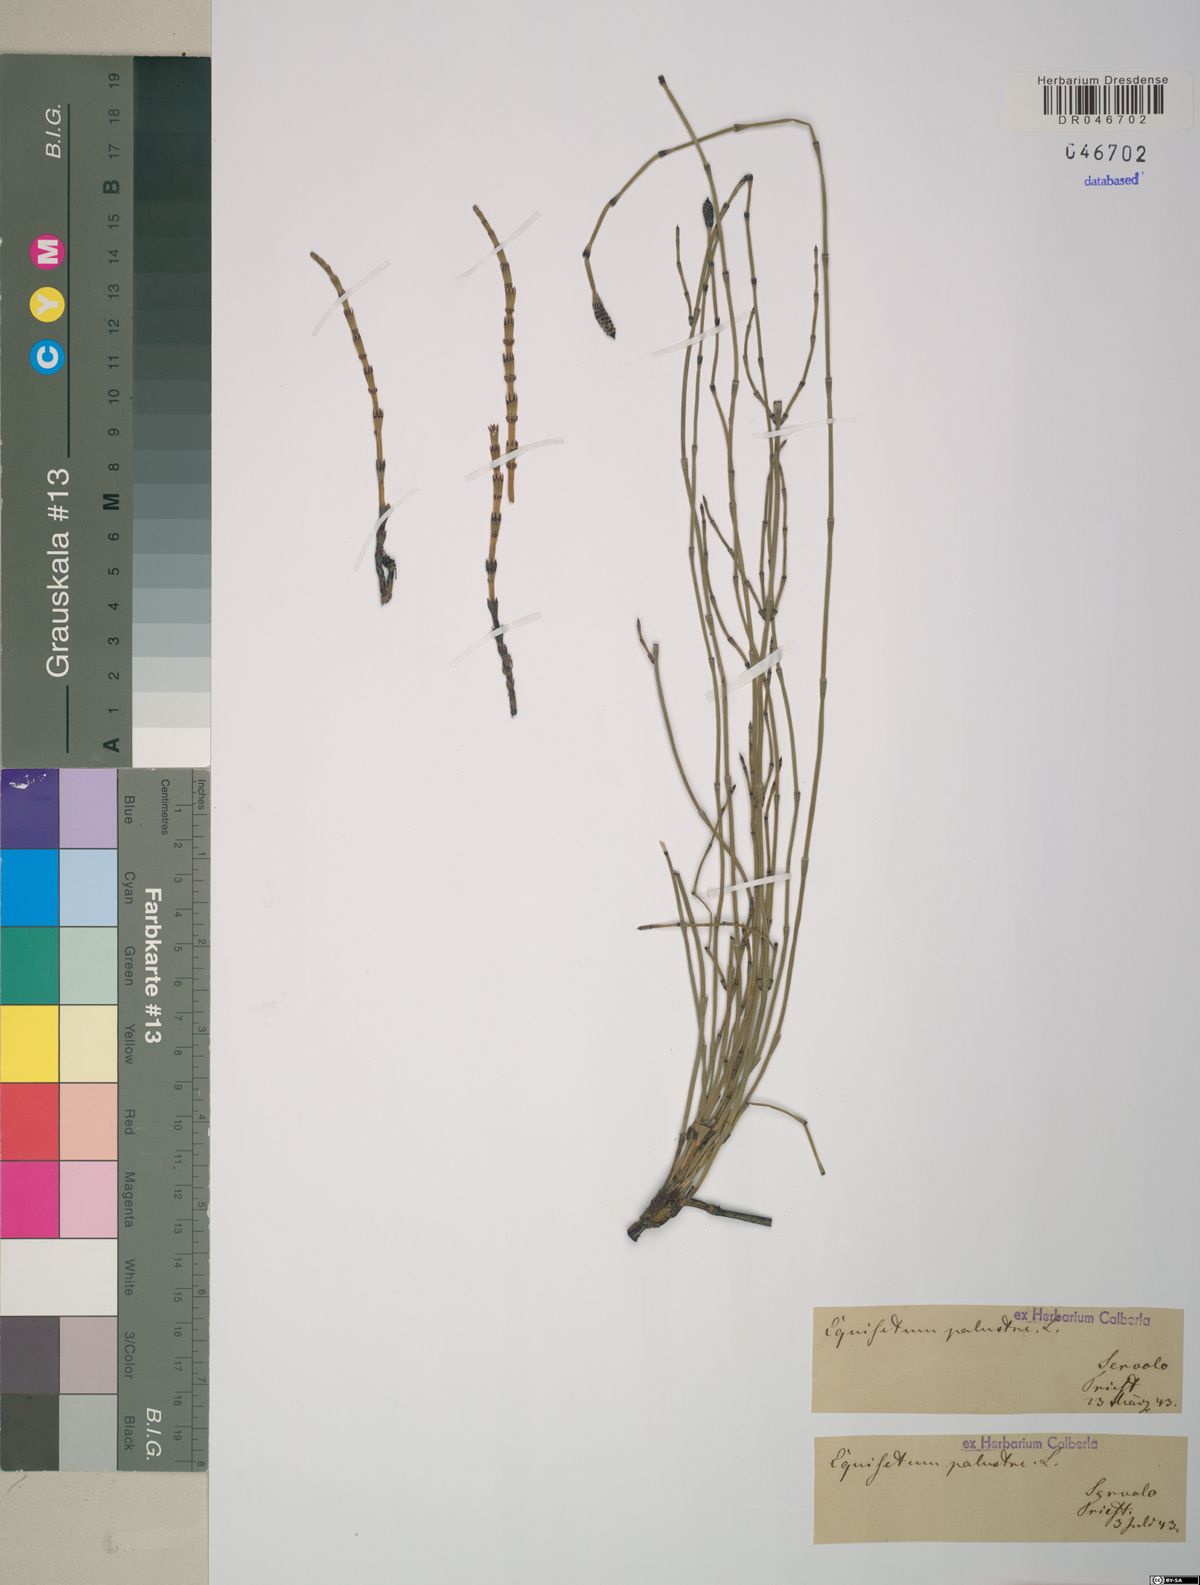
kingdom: Plantae
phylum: Tracheophyta
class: Polypodiopsida
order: Equisetales
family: Equisetaceae
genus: Equisetum
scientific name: Equisetum palustre
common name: Marsh horsetail
